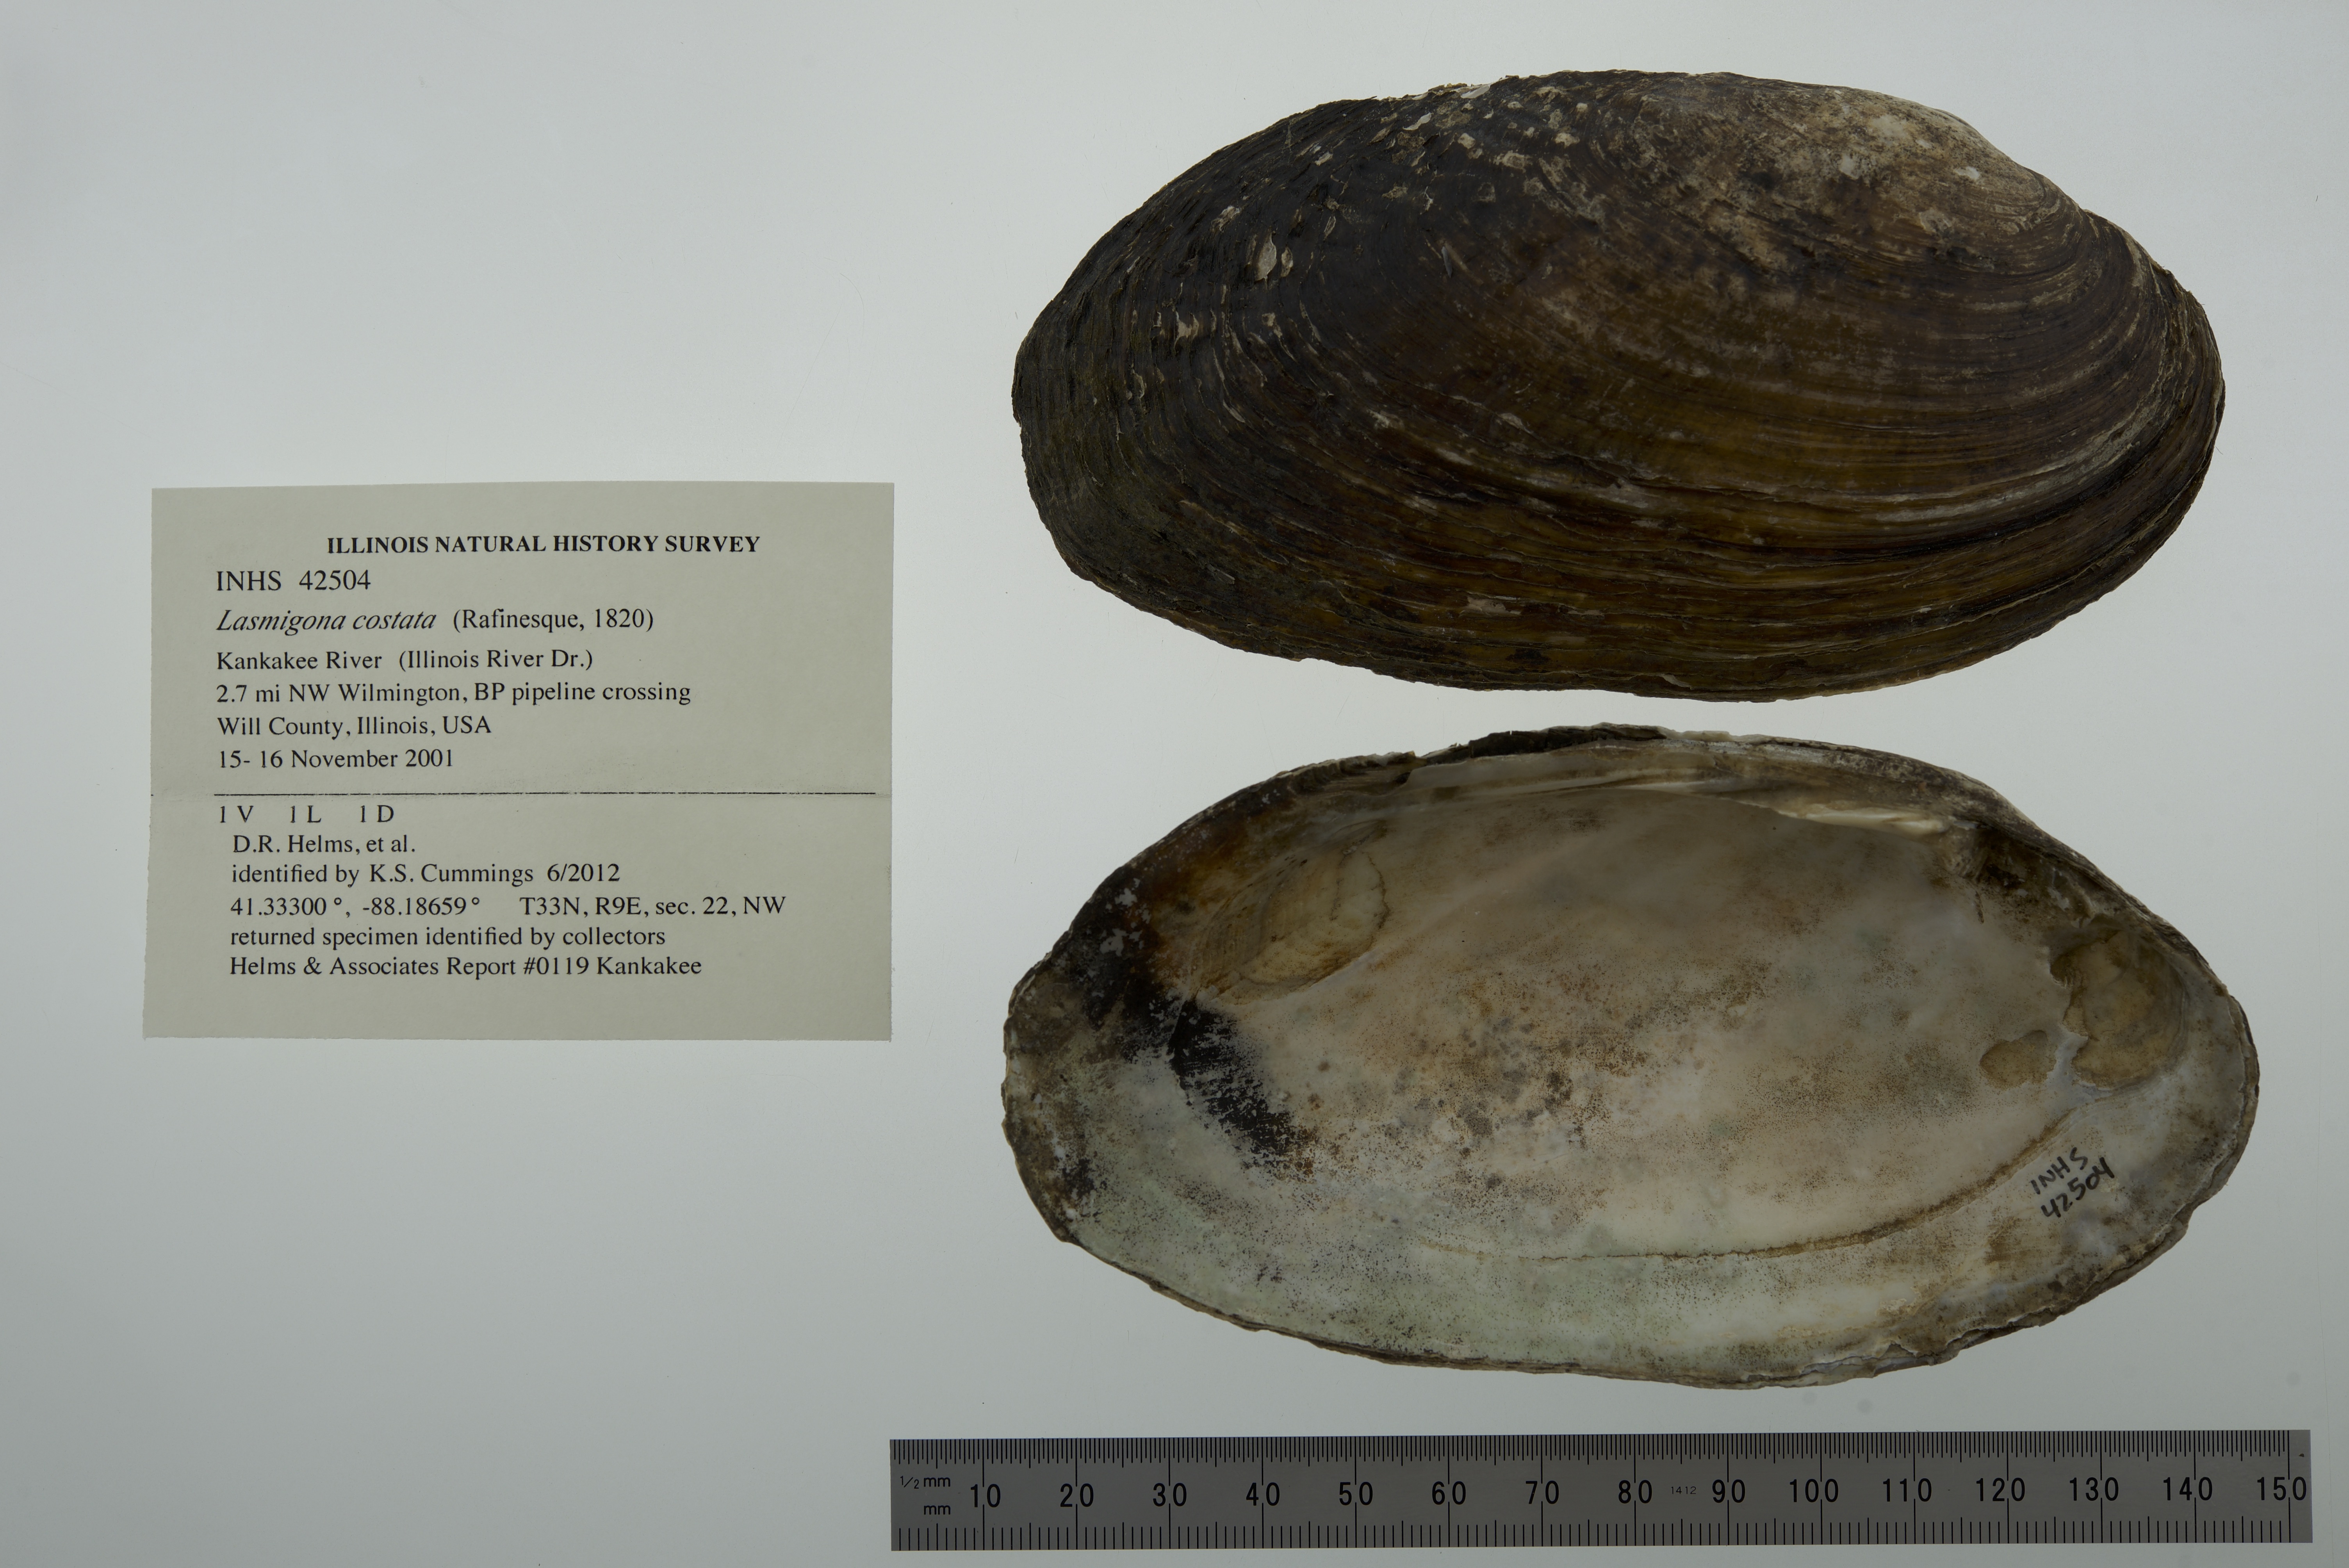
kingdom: Animalia
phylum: Mollusca
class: Bivalvia
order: Unionida
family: Unionidae
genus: Lasmigona
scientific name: Lasmigona costata
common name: Flutedshell
